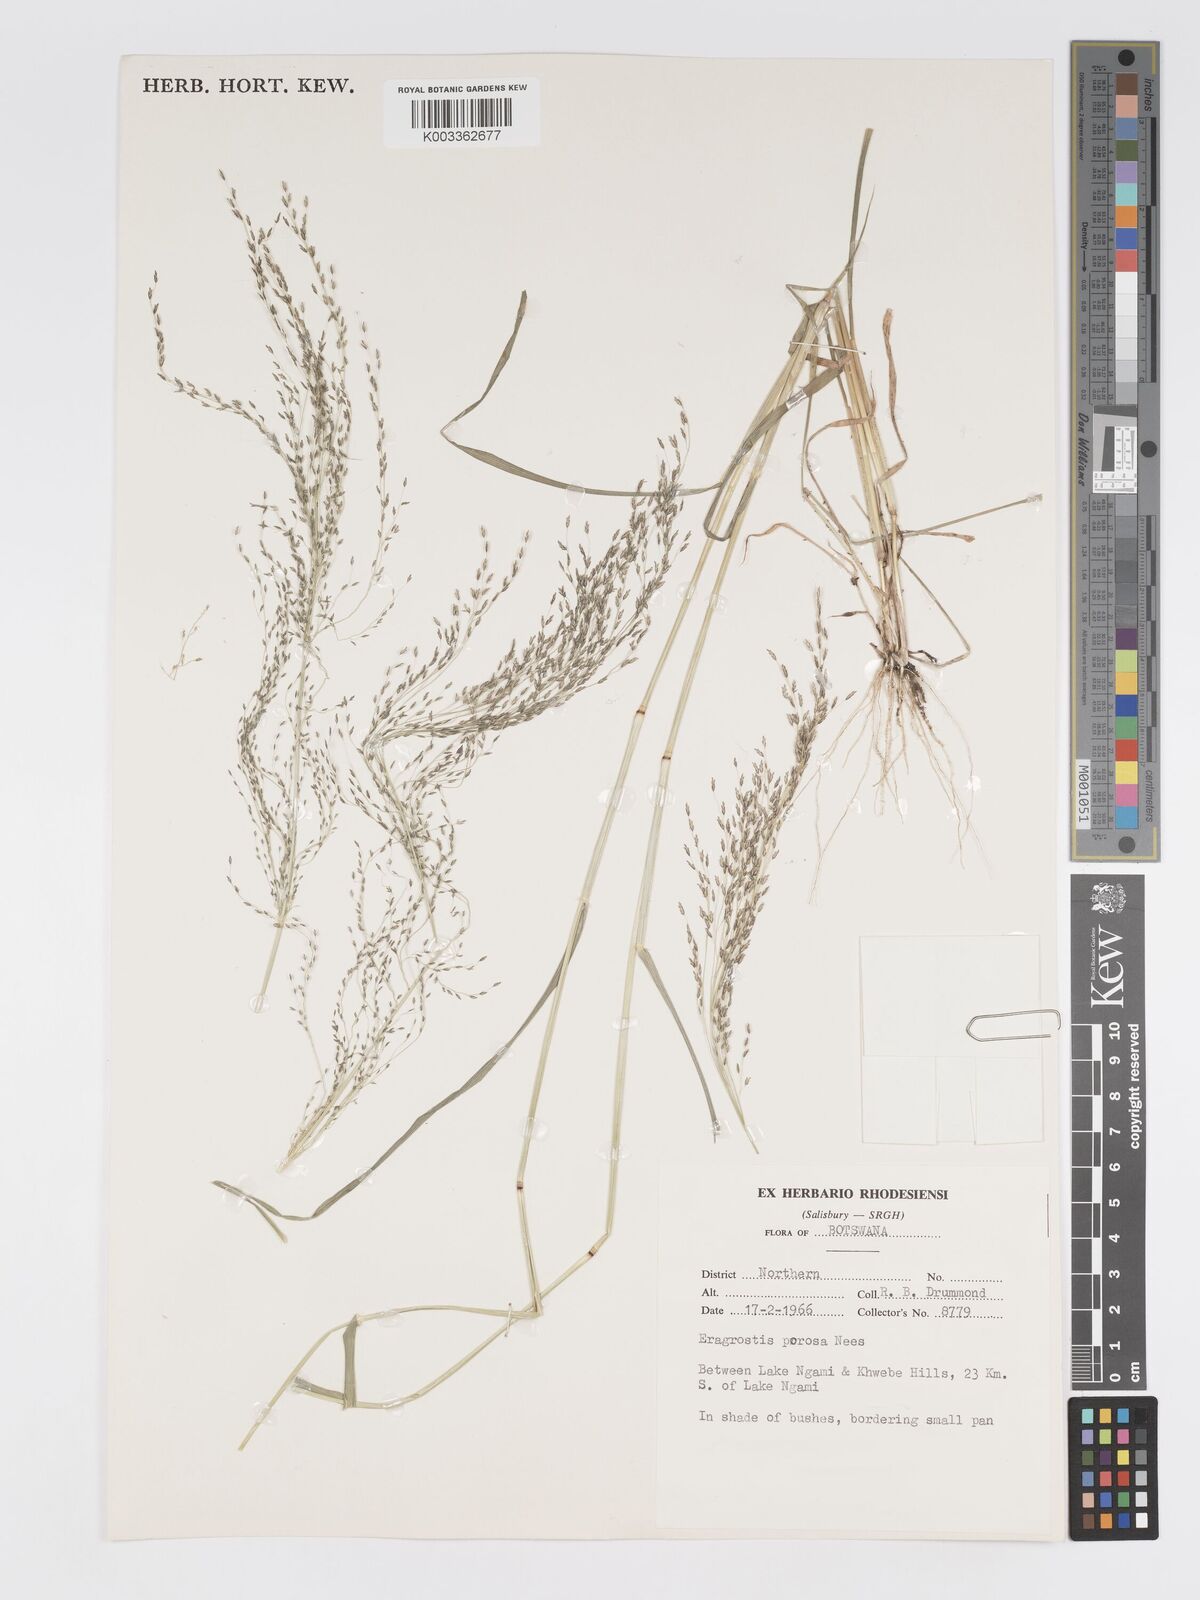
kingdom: Plantae
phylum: Tracheophyta
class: Liliopsida
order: Poales
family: Poaceae
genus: Eragrostis
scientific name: Eragrostis porosa
